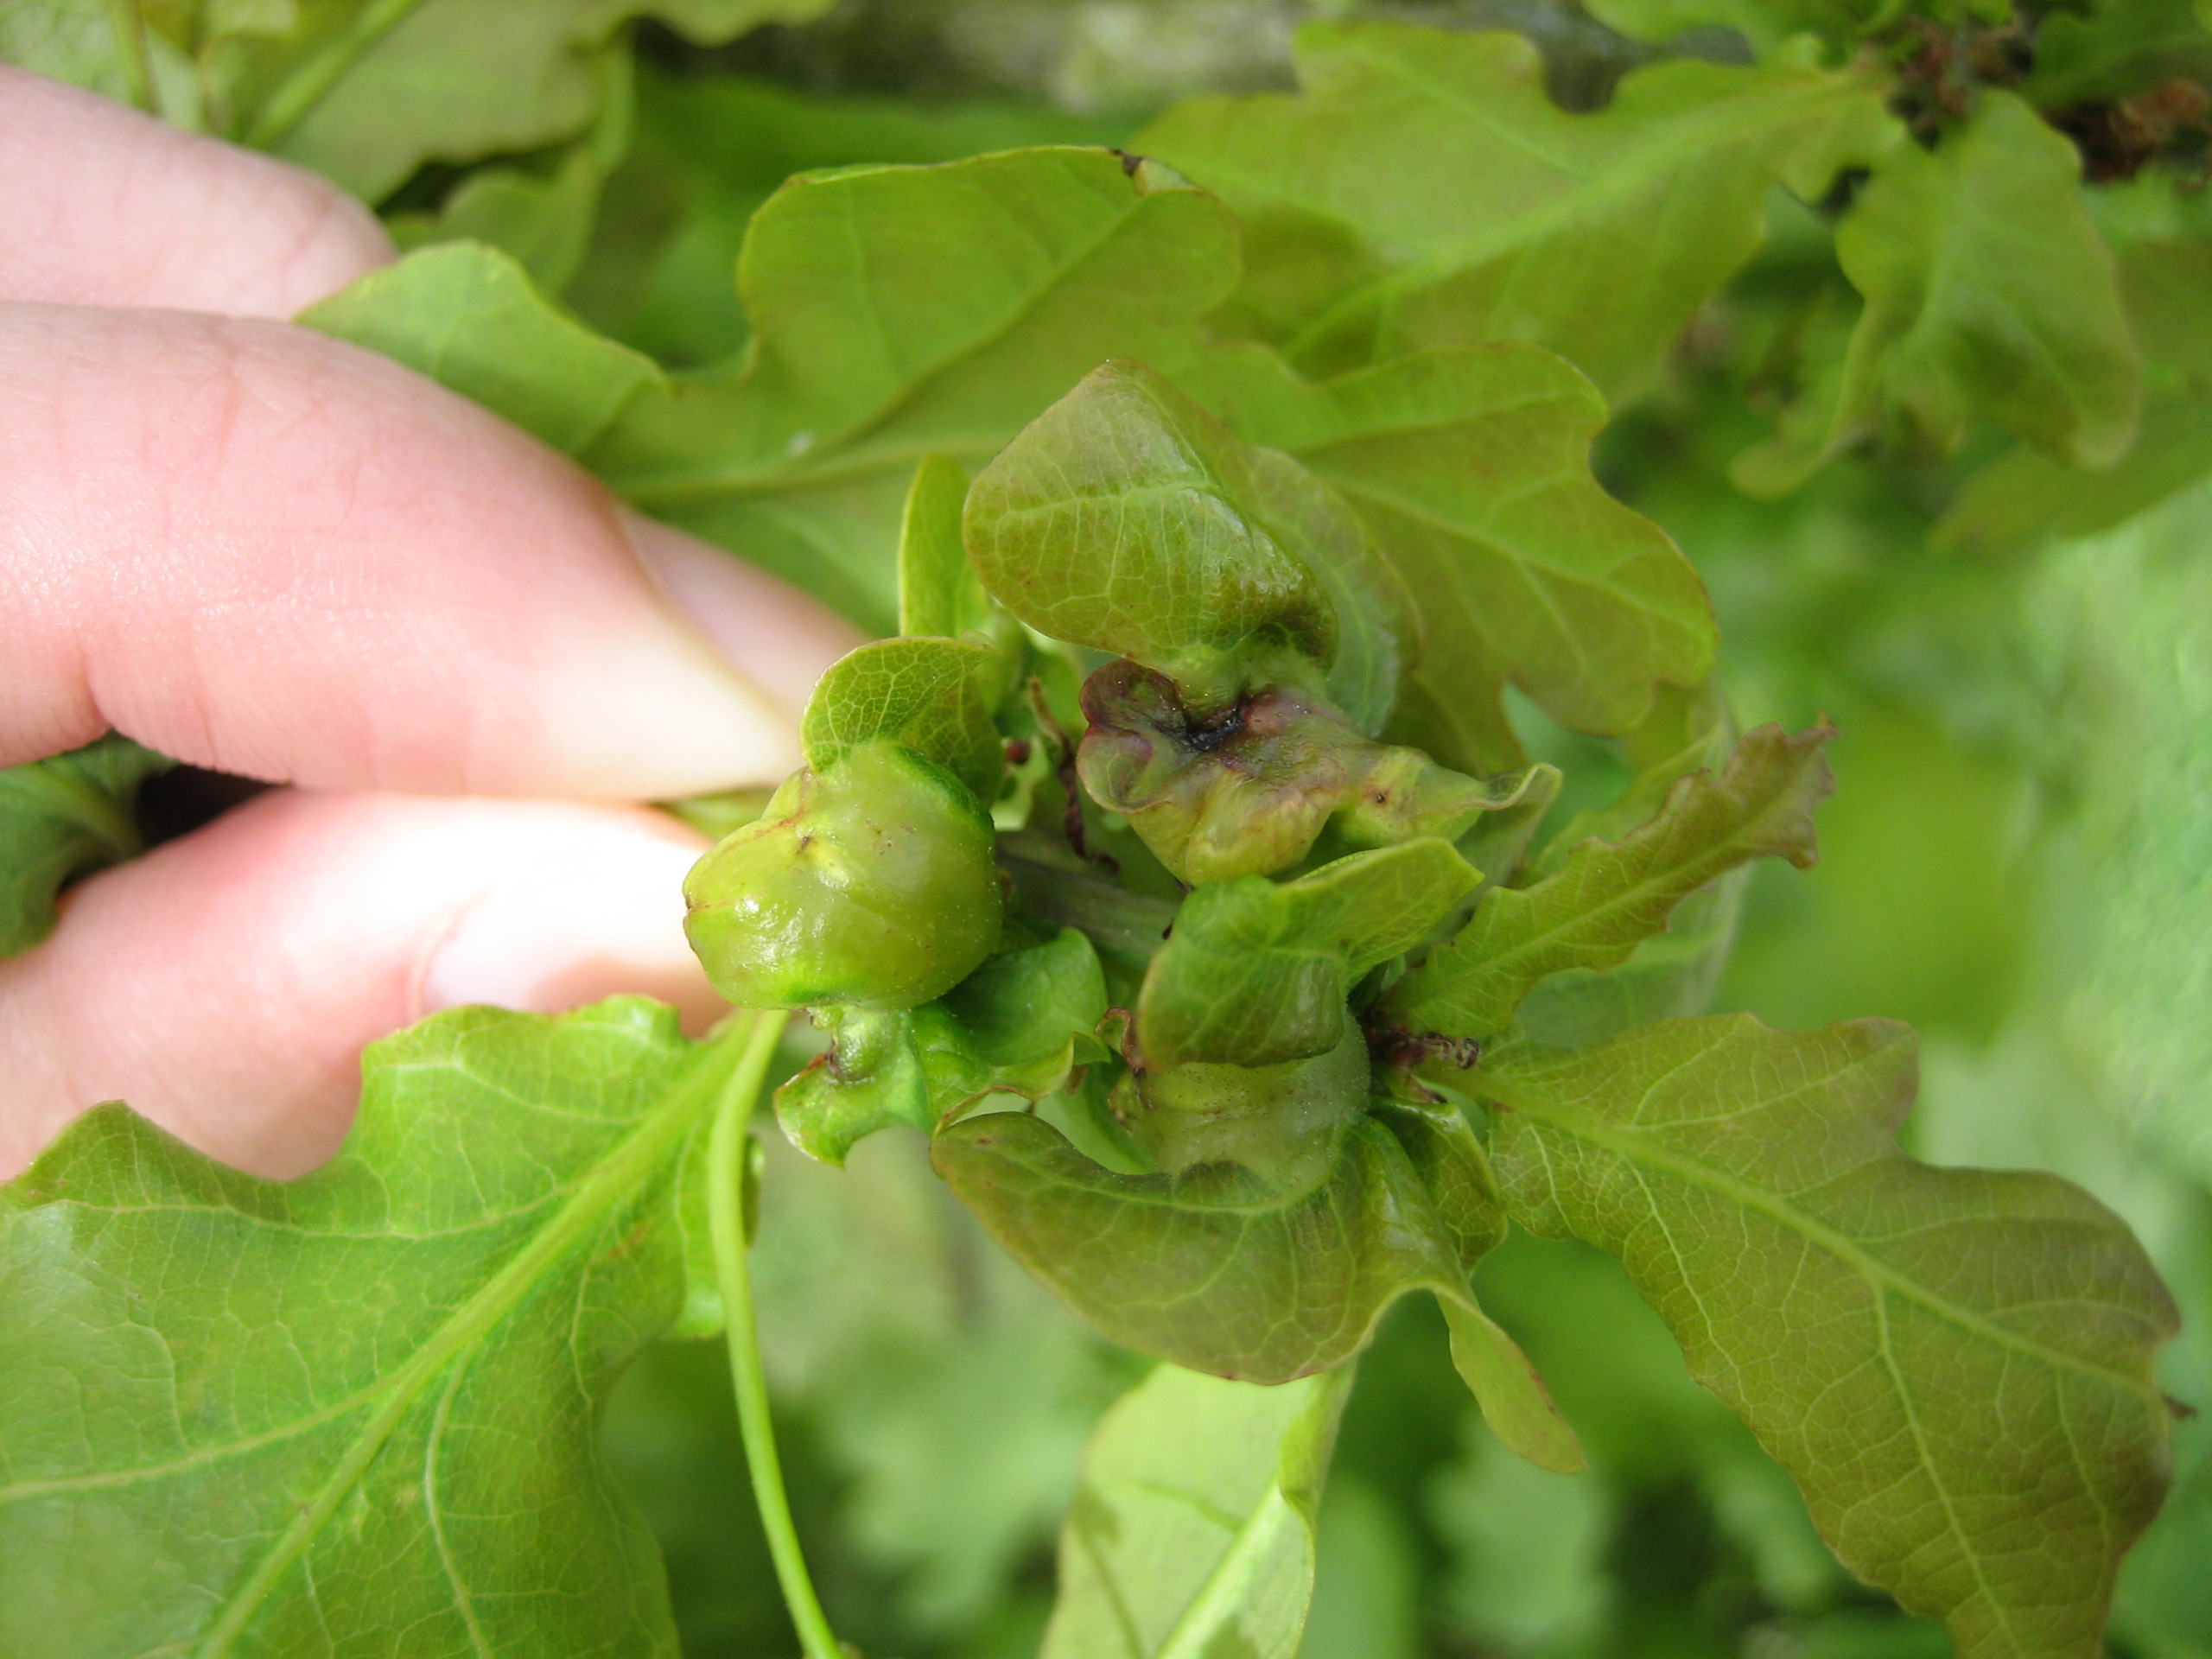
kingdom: Animalia
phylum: Arthropoda
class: Insecta
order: Hymenoptera
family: Cynipidae
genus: Andricus
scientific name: Andricus curvator
